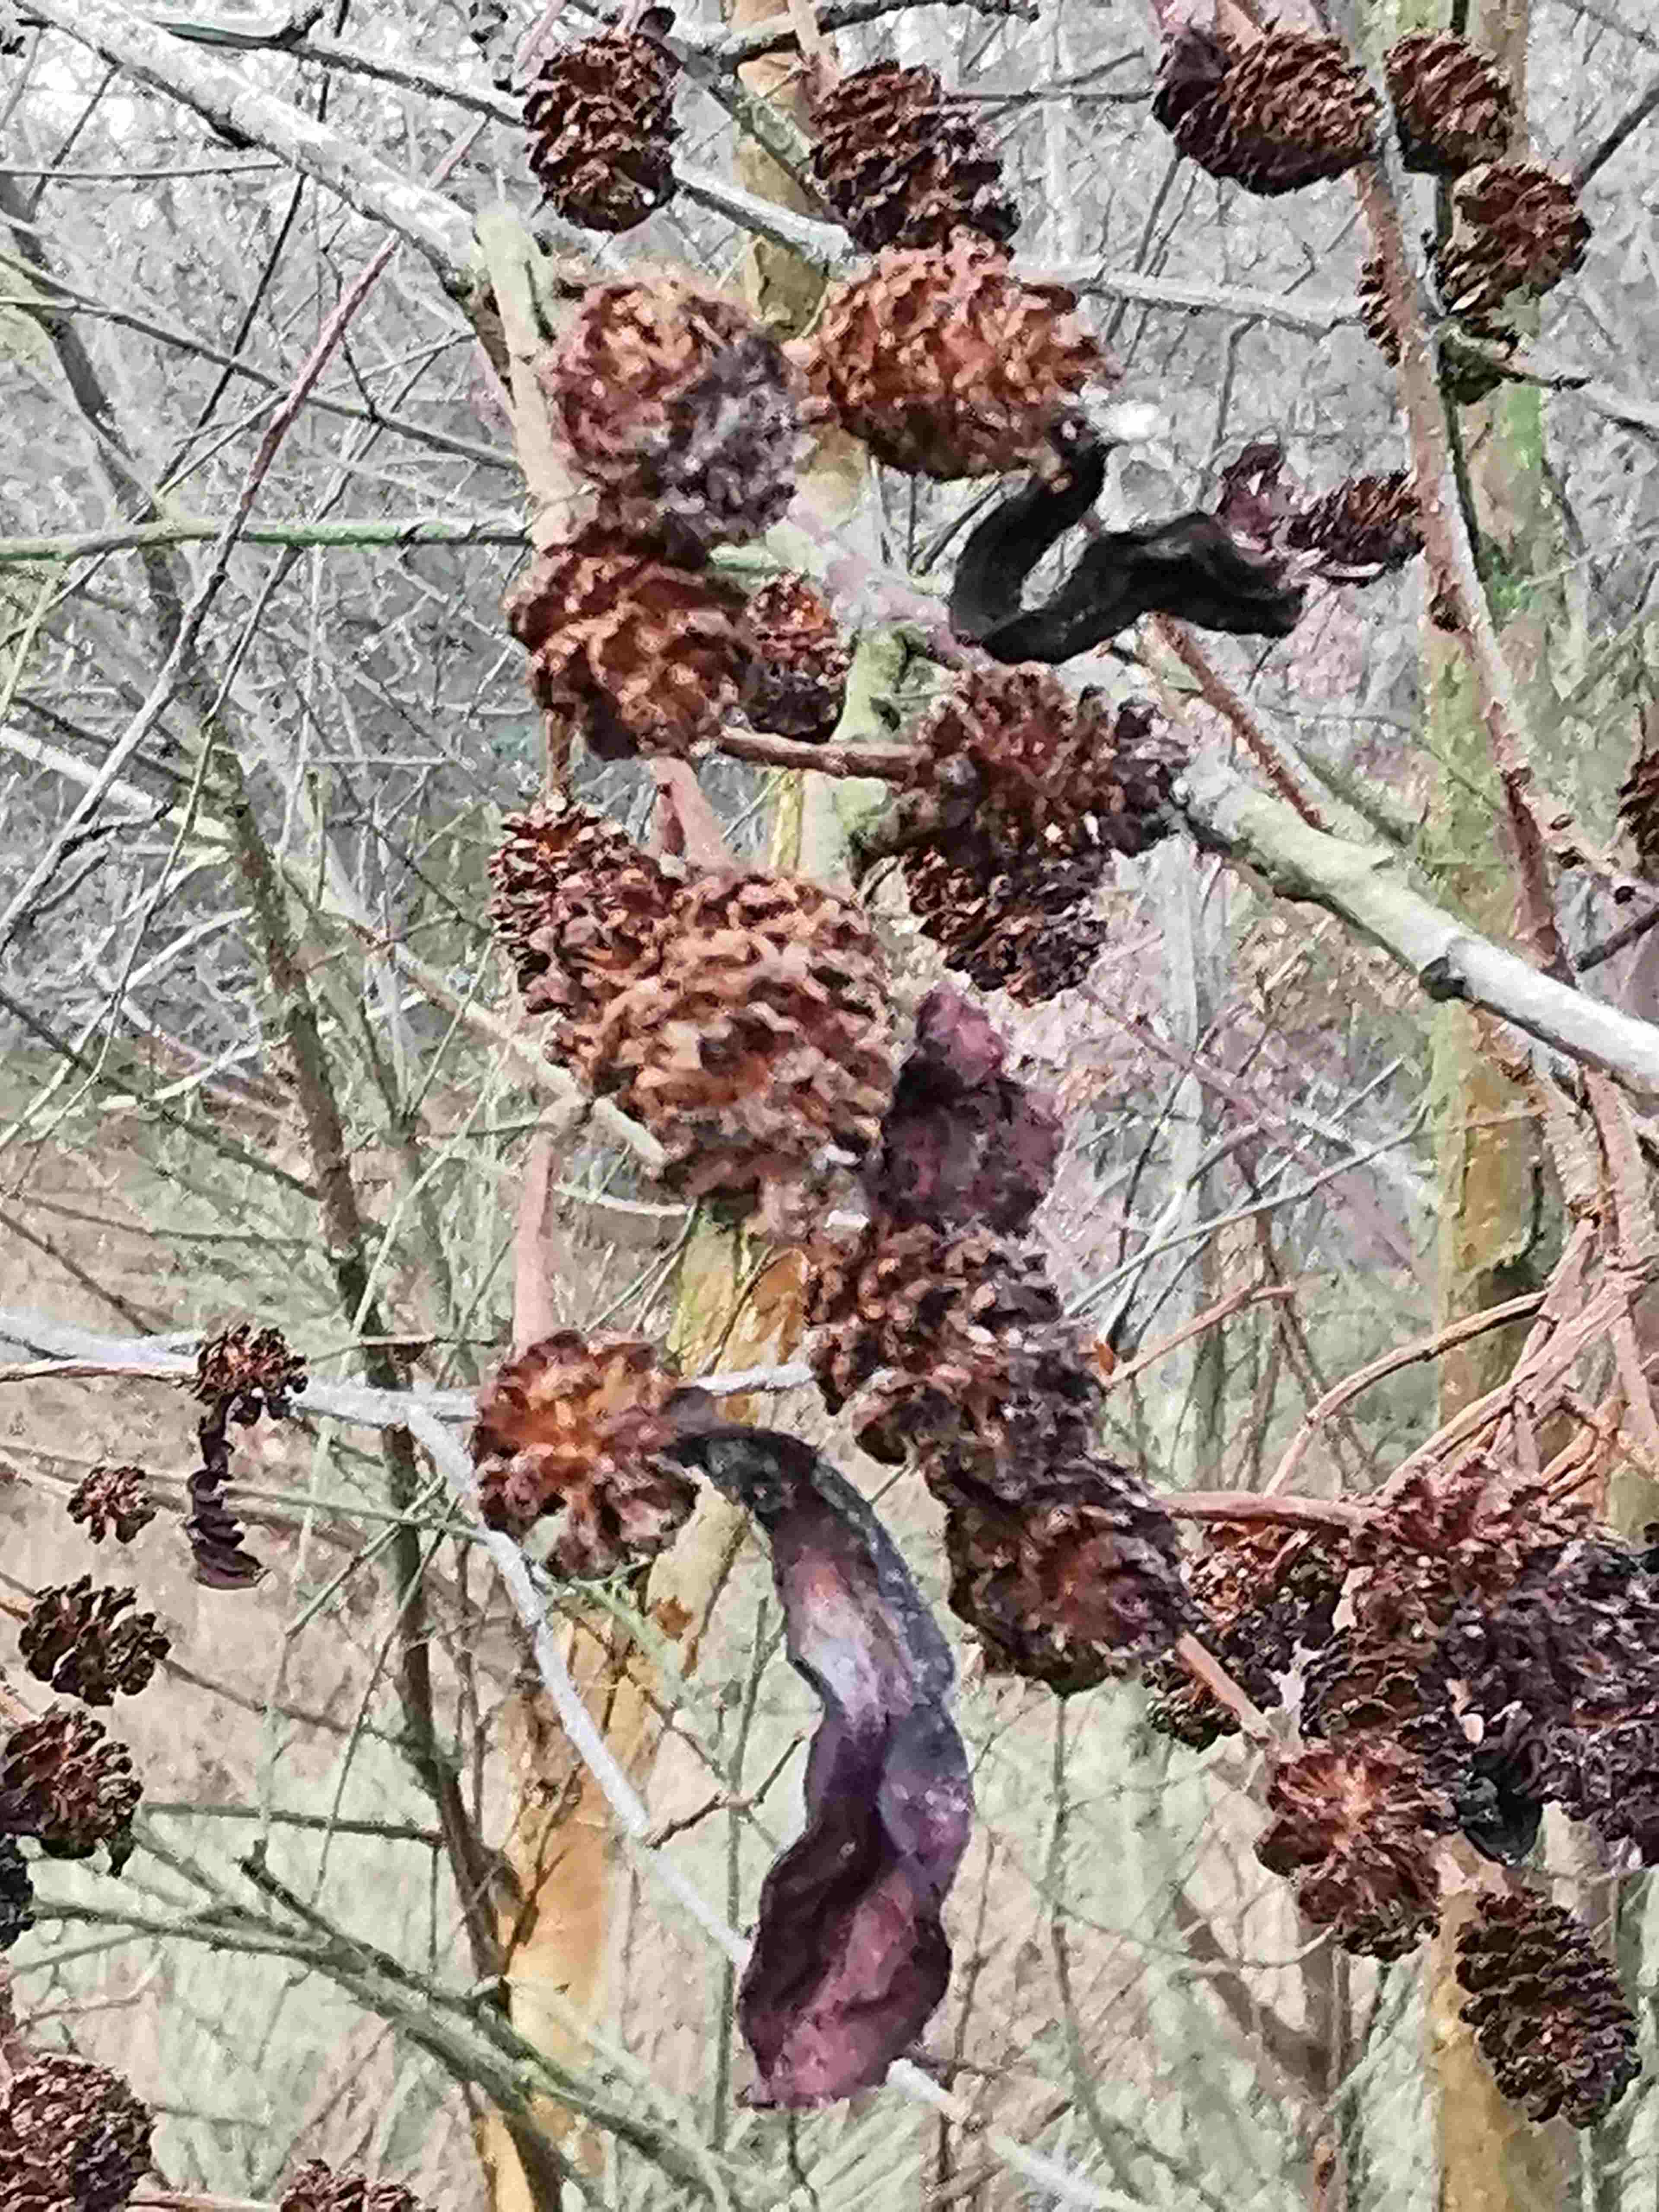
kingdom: Fungi
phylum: Ascomycota
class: Taphrinomycetes
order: Taphrinales
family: Taphrinaceae
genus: Taphrina
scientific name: Taphrina alni
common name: Alder tongue
